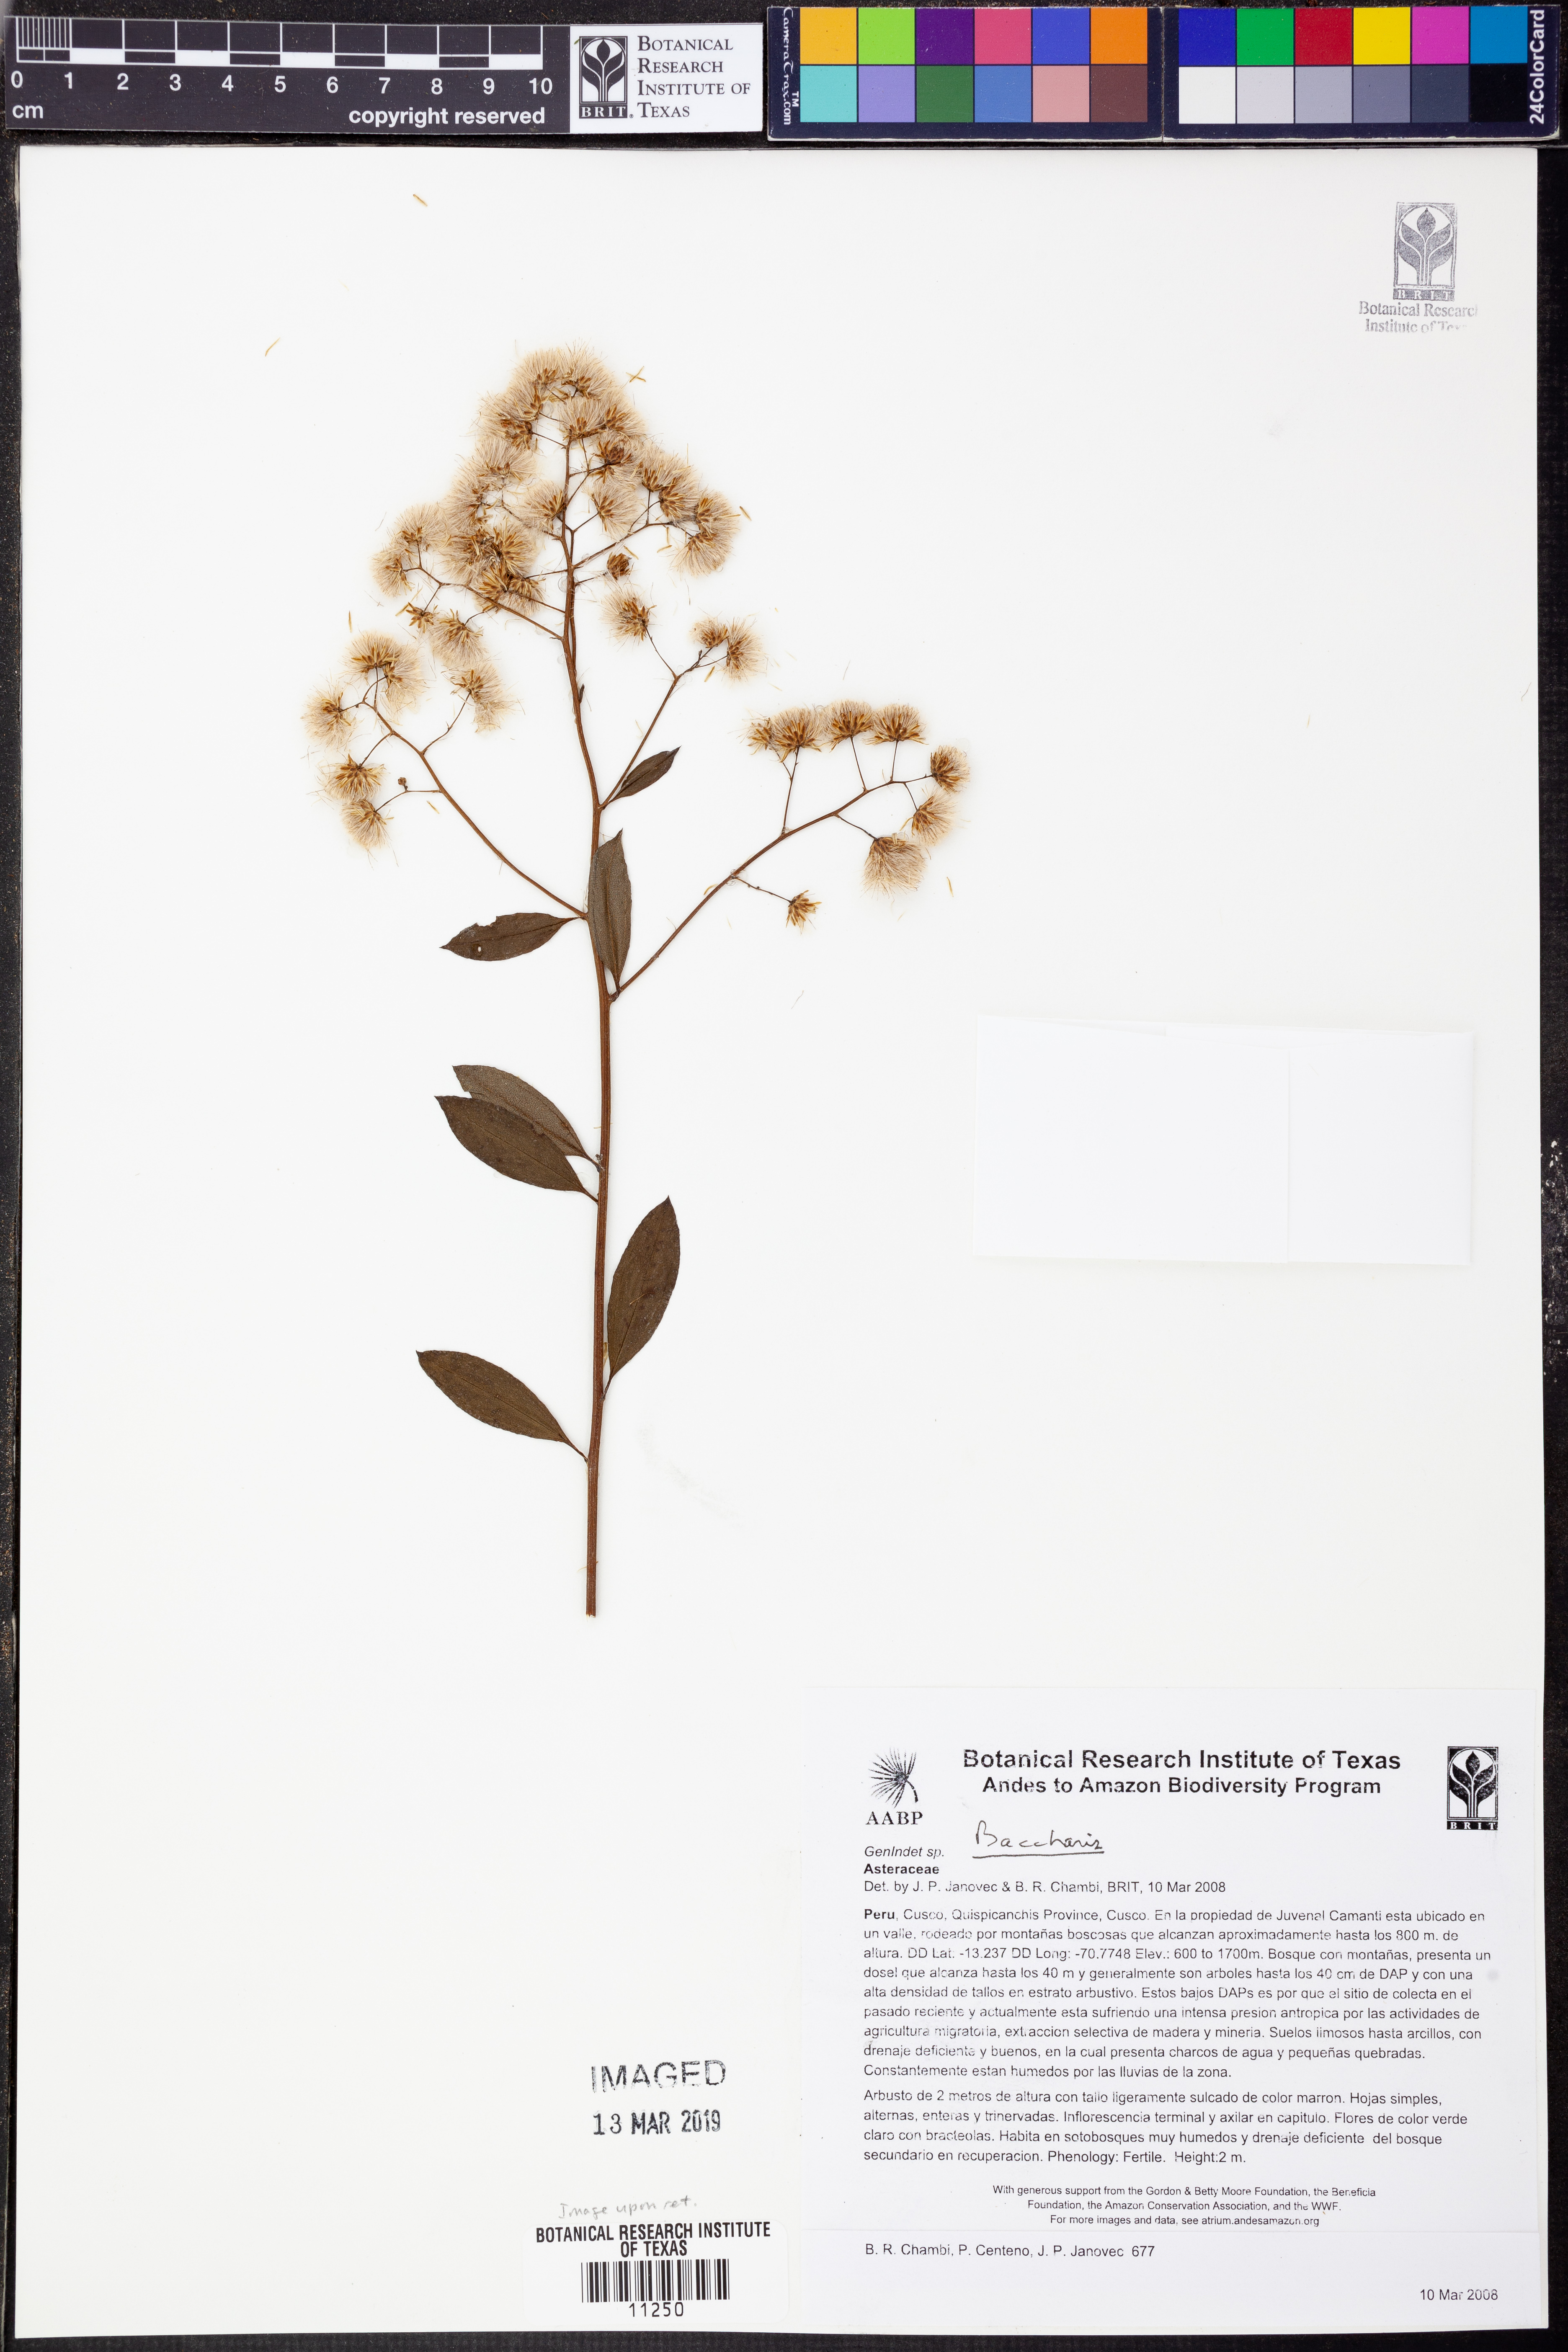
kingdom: Plantae
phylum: Tracheophyta
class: Magnoliopsida
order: Asterales
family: Asteraceae
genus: Baccharis
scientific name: Baccharis
